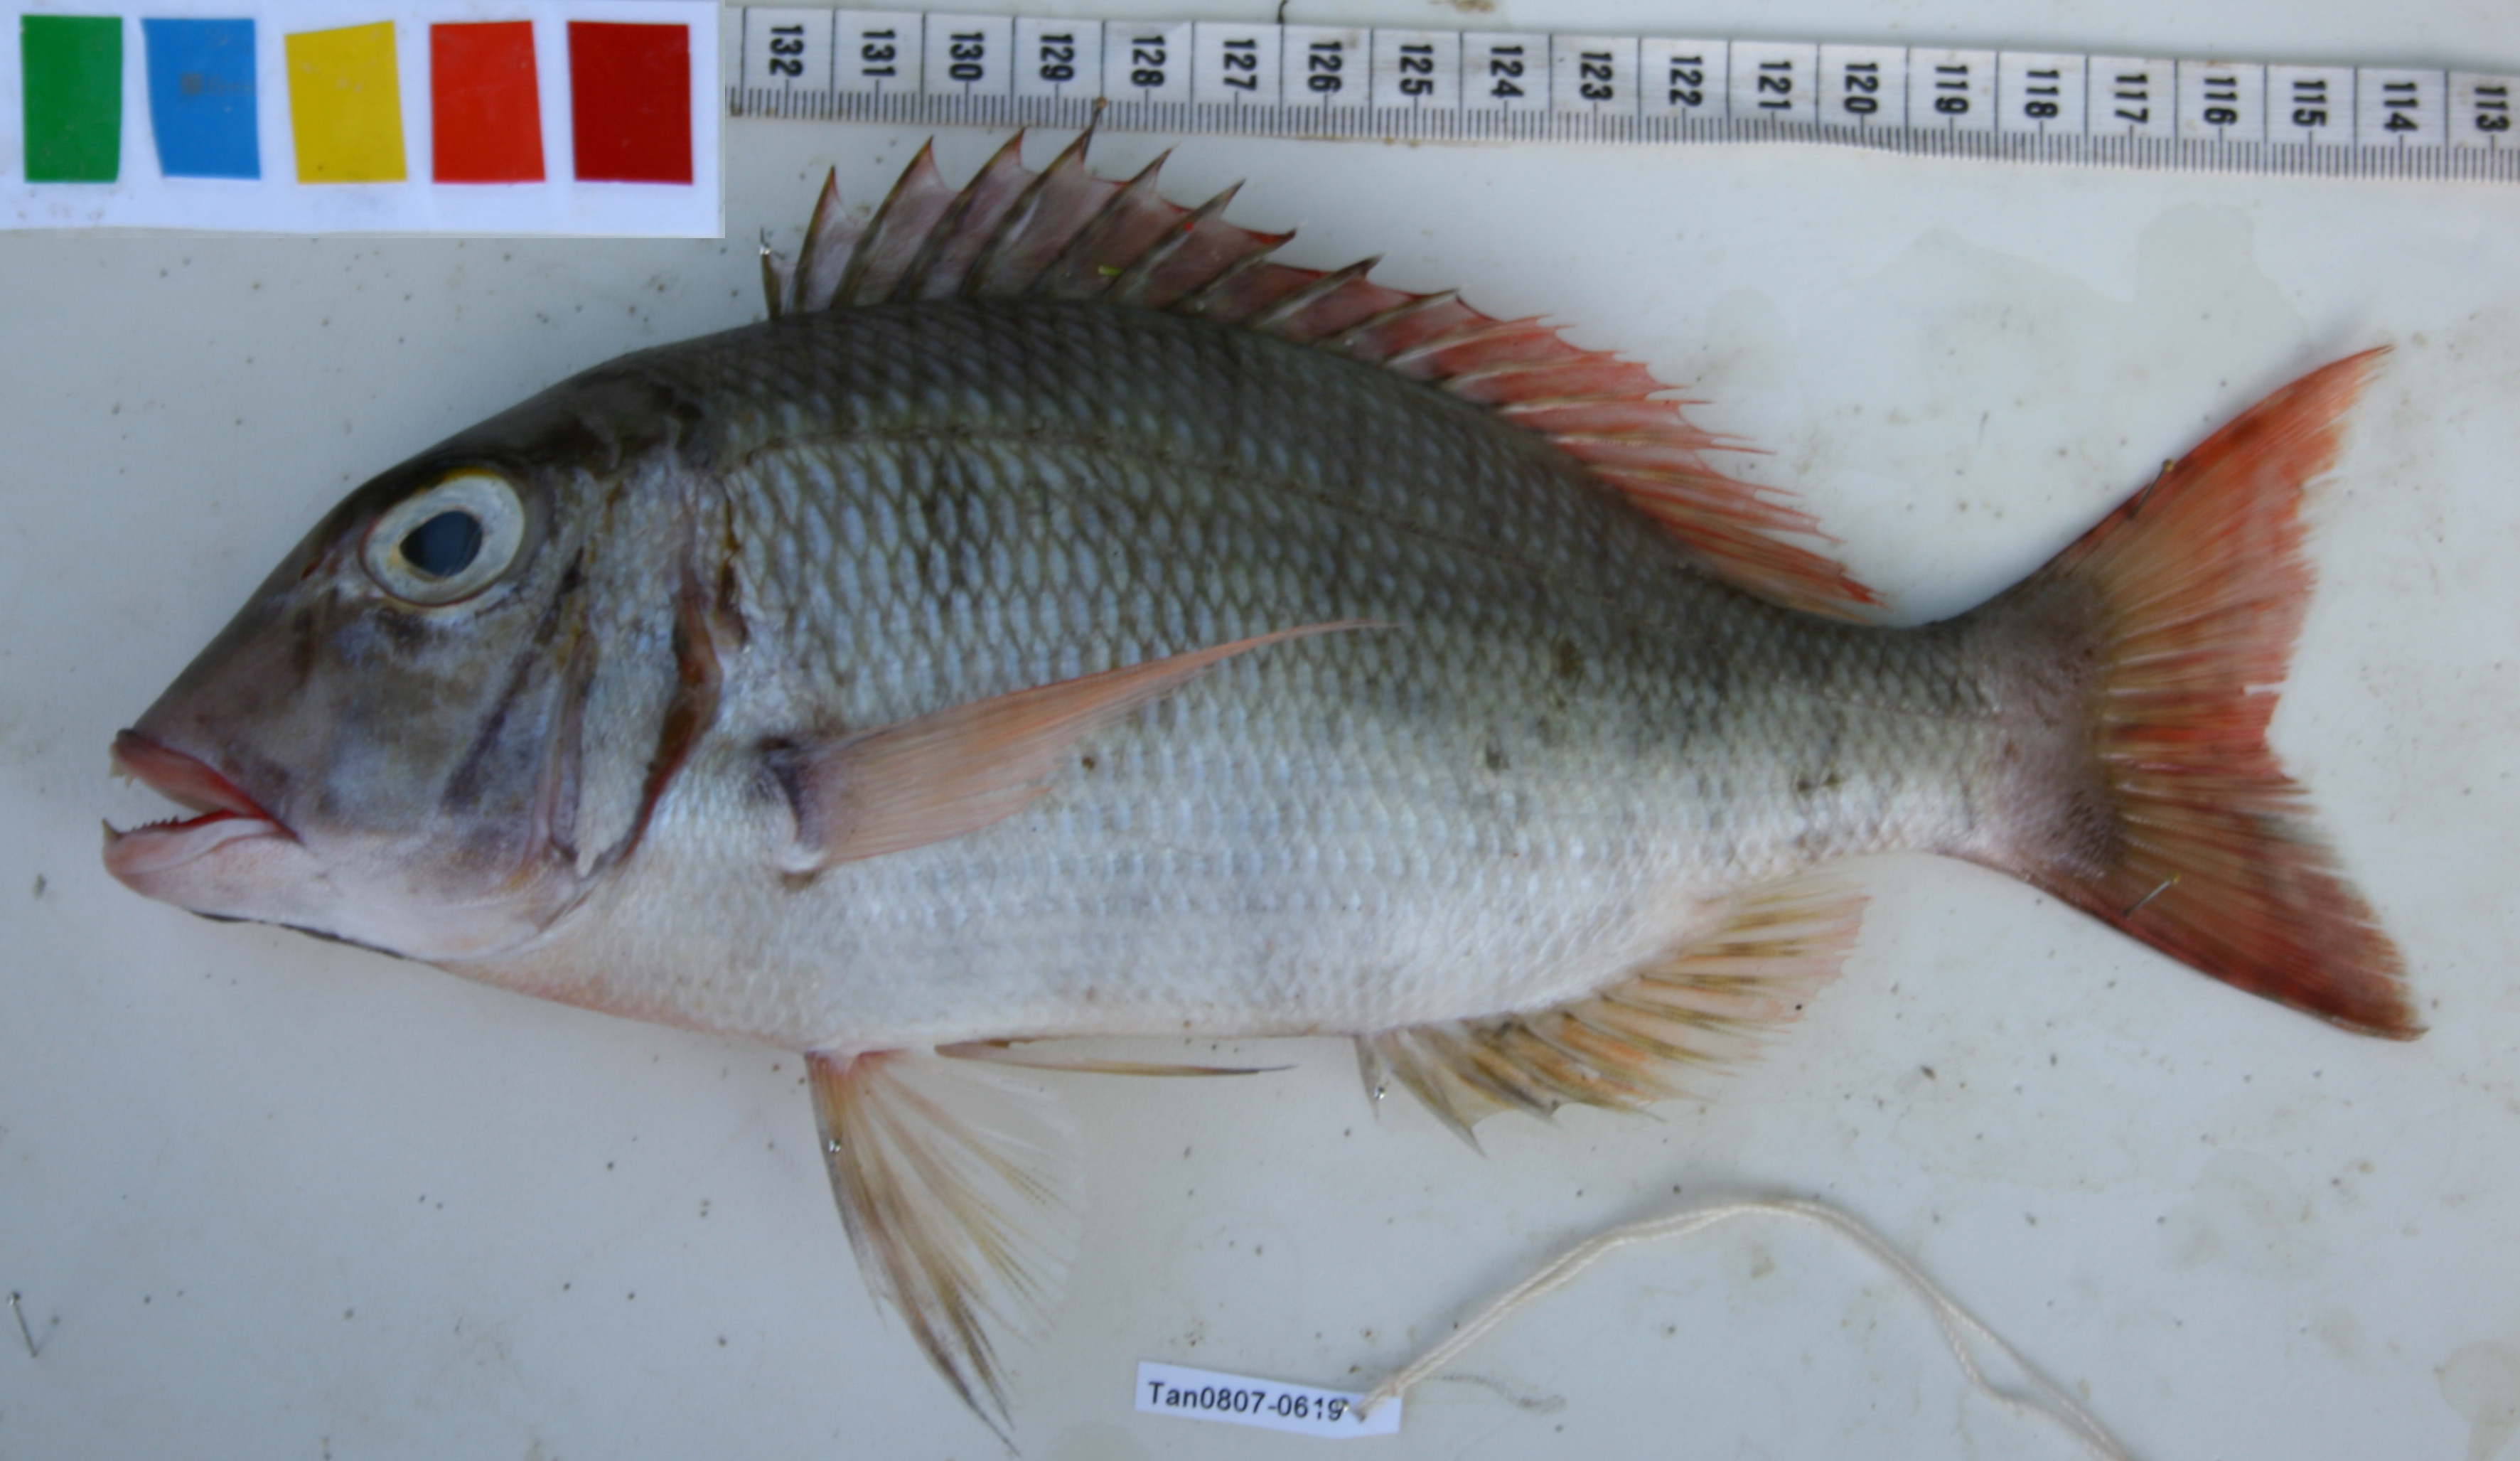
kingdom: Animalia
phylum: Chordata
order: Perciformes
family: Lethrinidae
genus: Lethrinus
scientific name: Lethrinus mahsena
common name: Sky emperor
